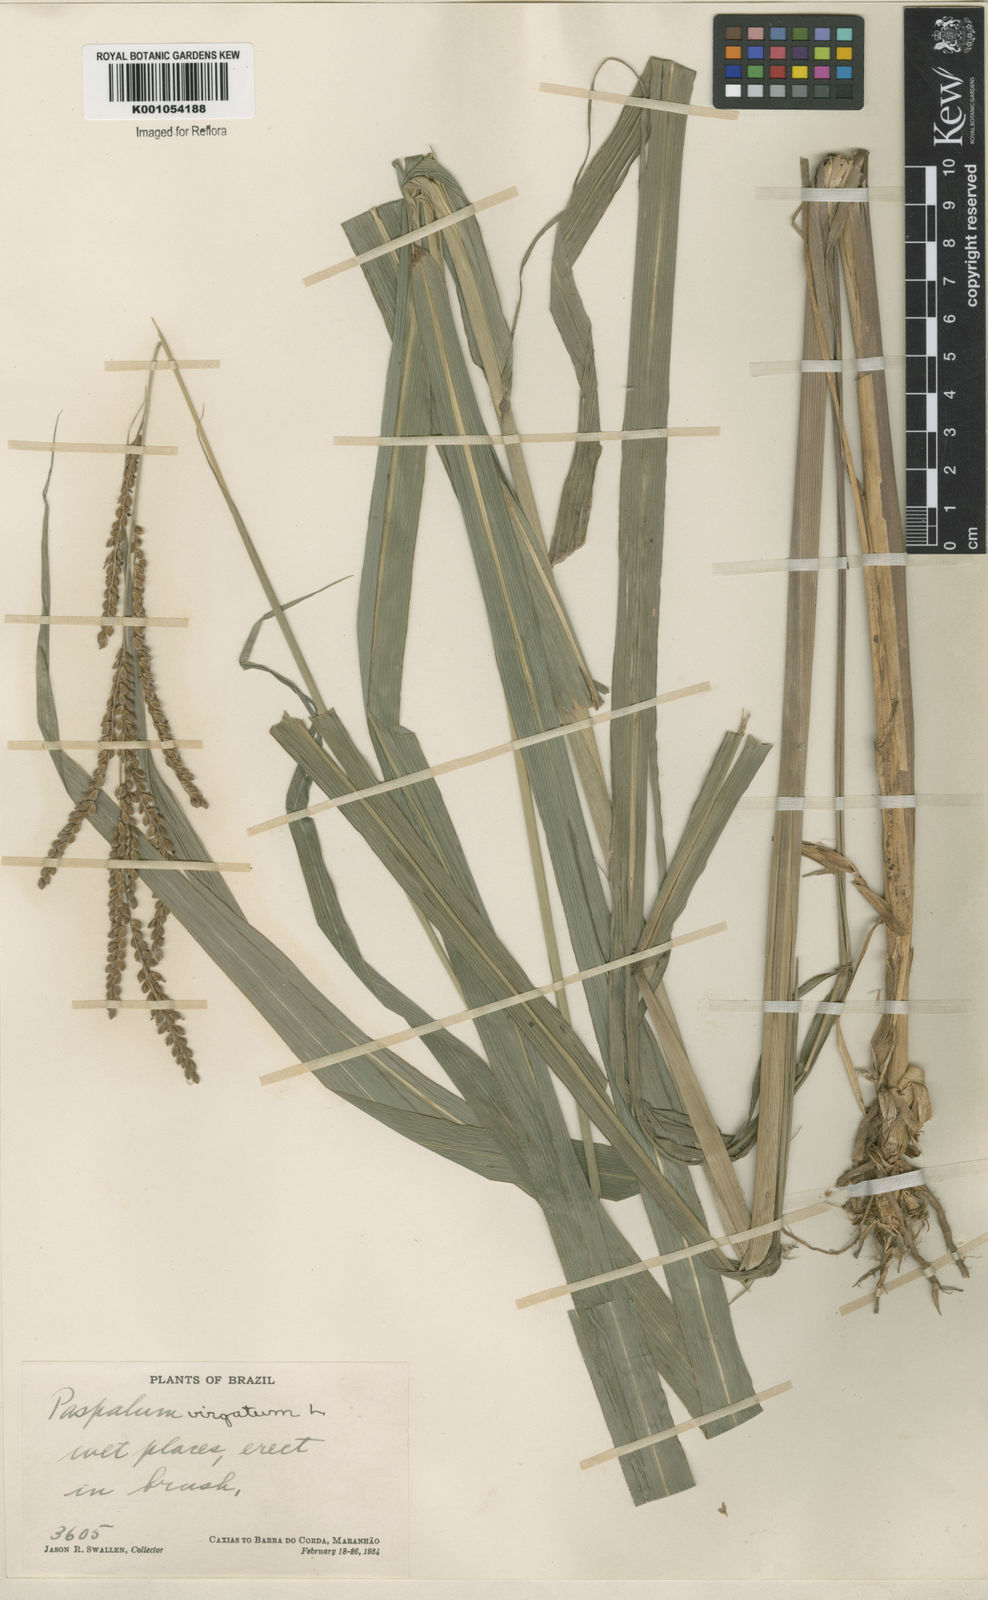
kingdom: Plantae
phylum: Tracheophyta
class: Liliopsida
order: Poales
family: Poaceae
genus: Paspalum
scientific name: Paspalum virgatum
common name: Talquezal
